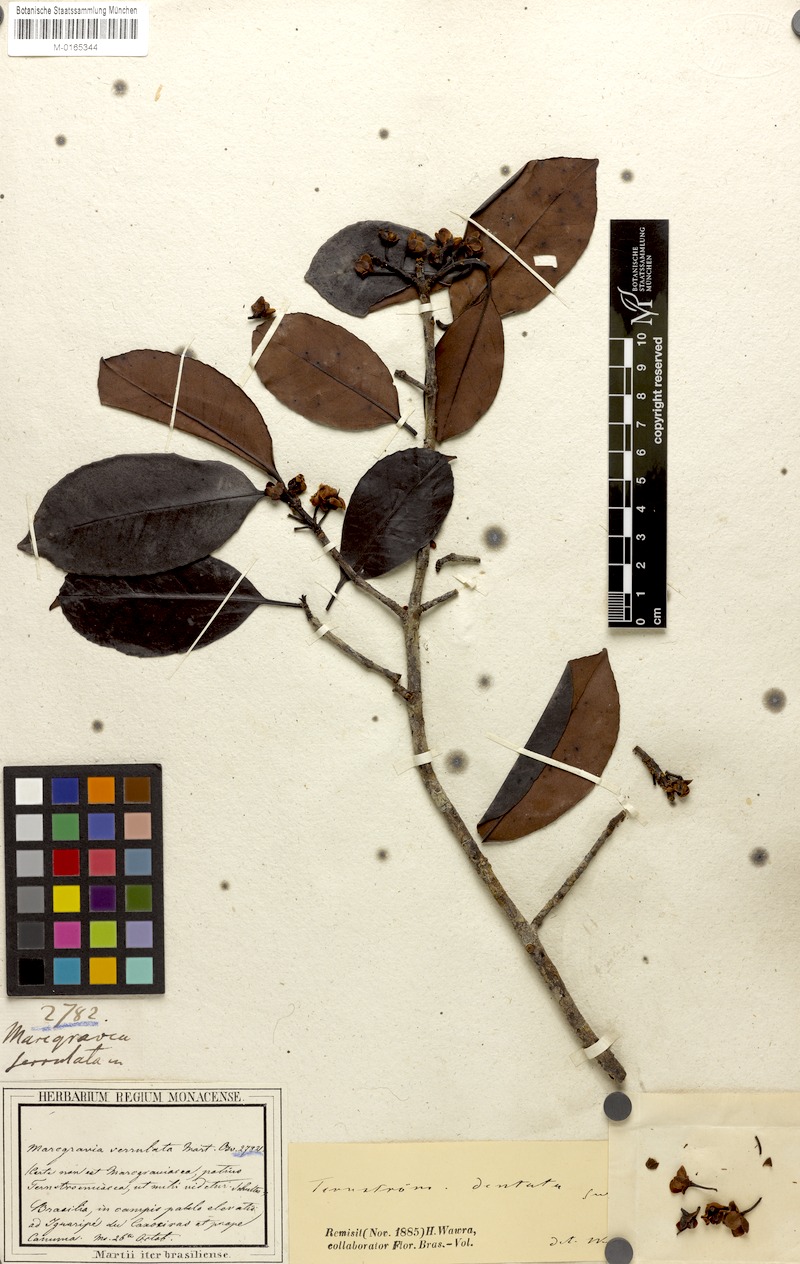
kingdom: Plantae
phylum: Tracheophyta
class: Magnoliopsida
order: Ericales
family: Pentaphylacaceae
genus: Ternstroemia
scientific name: Ternstroemia dentata
